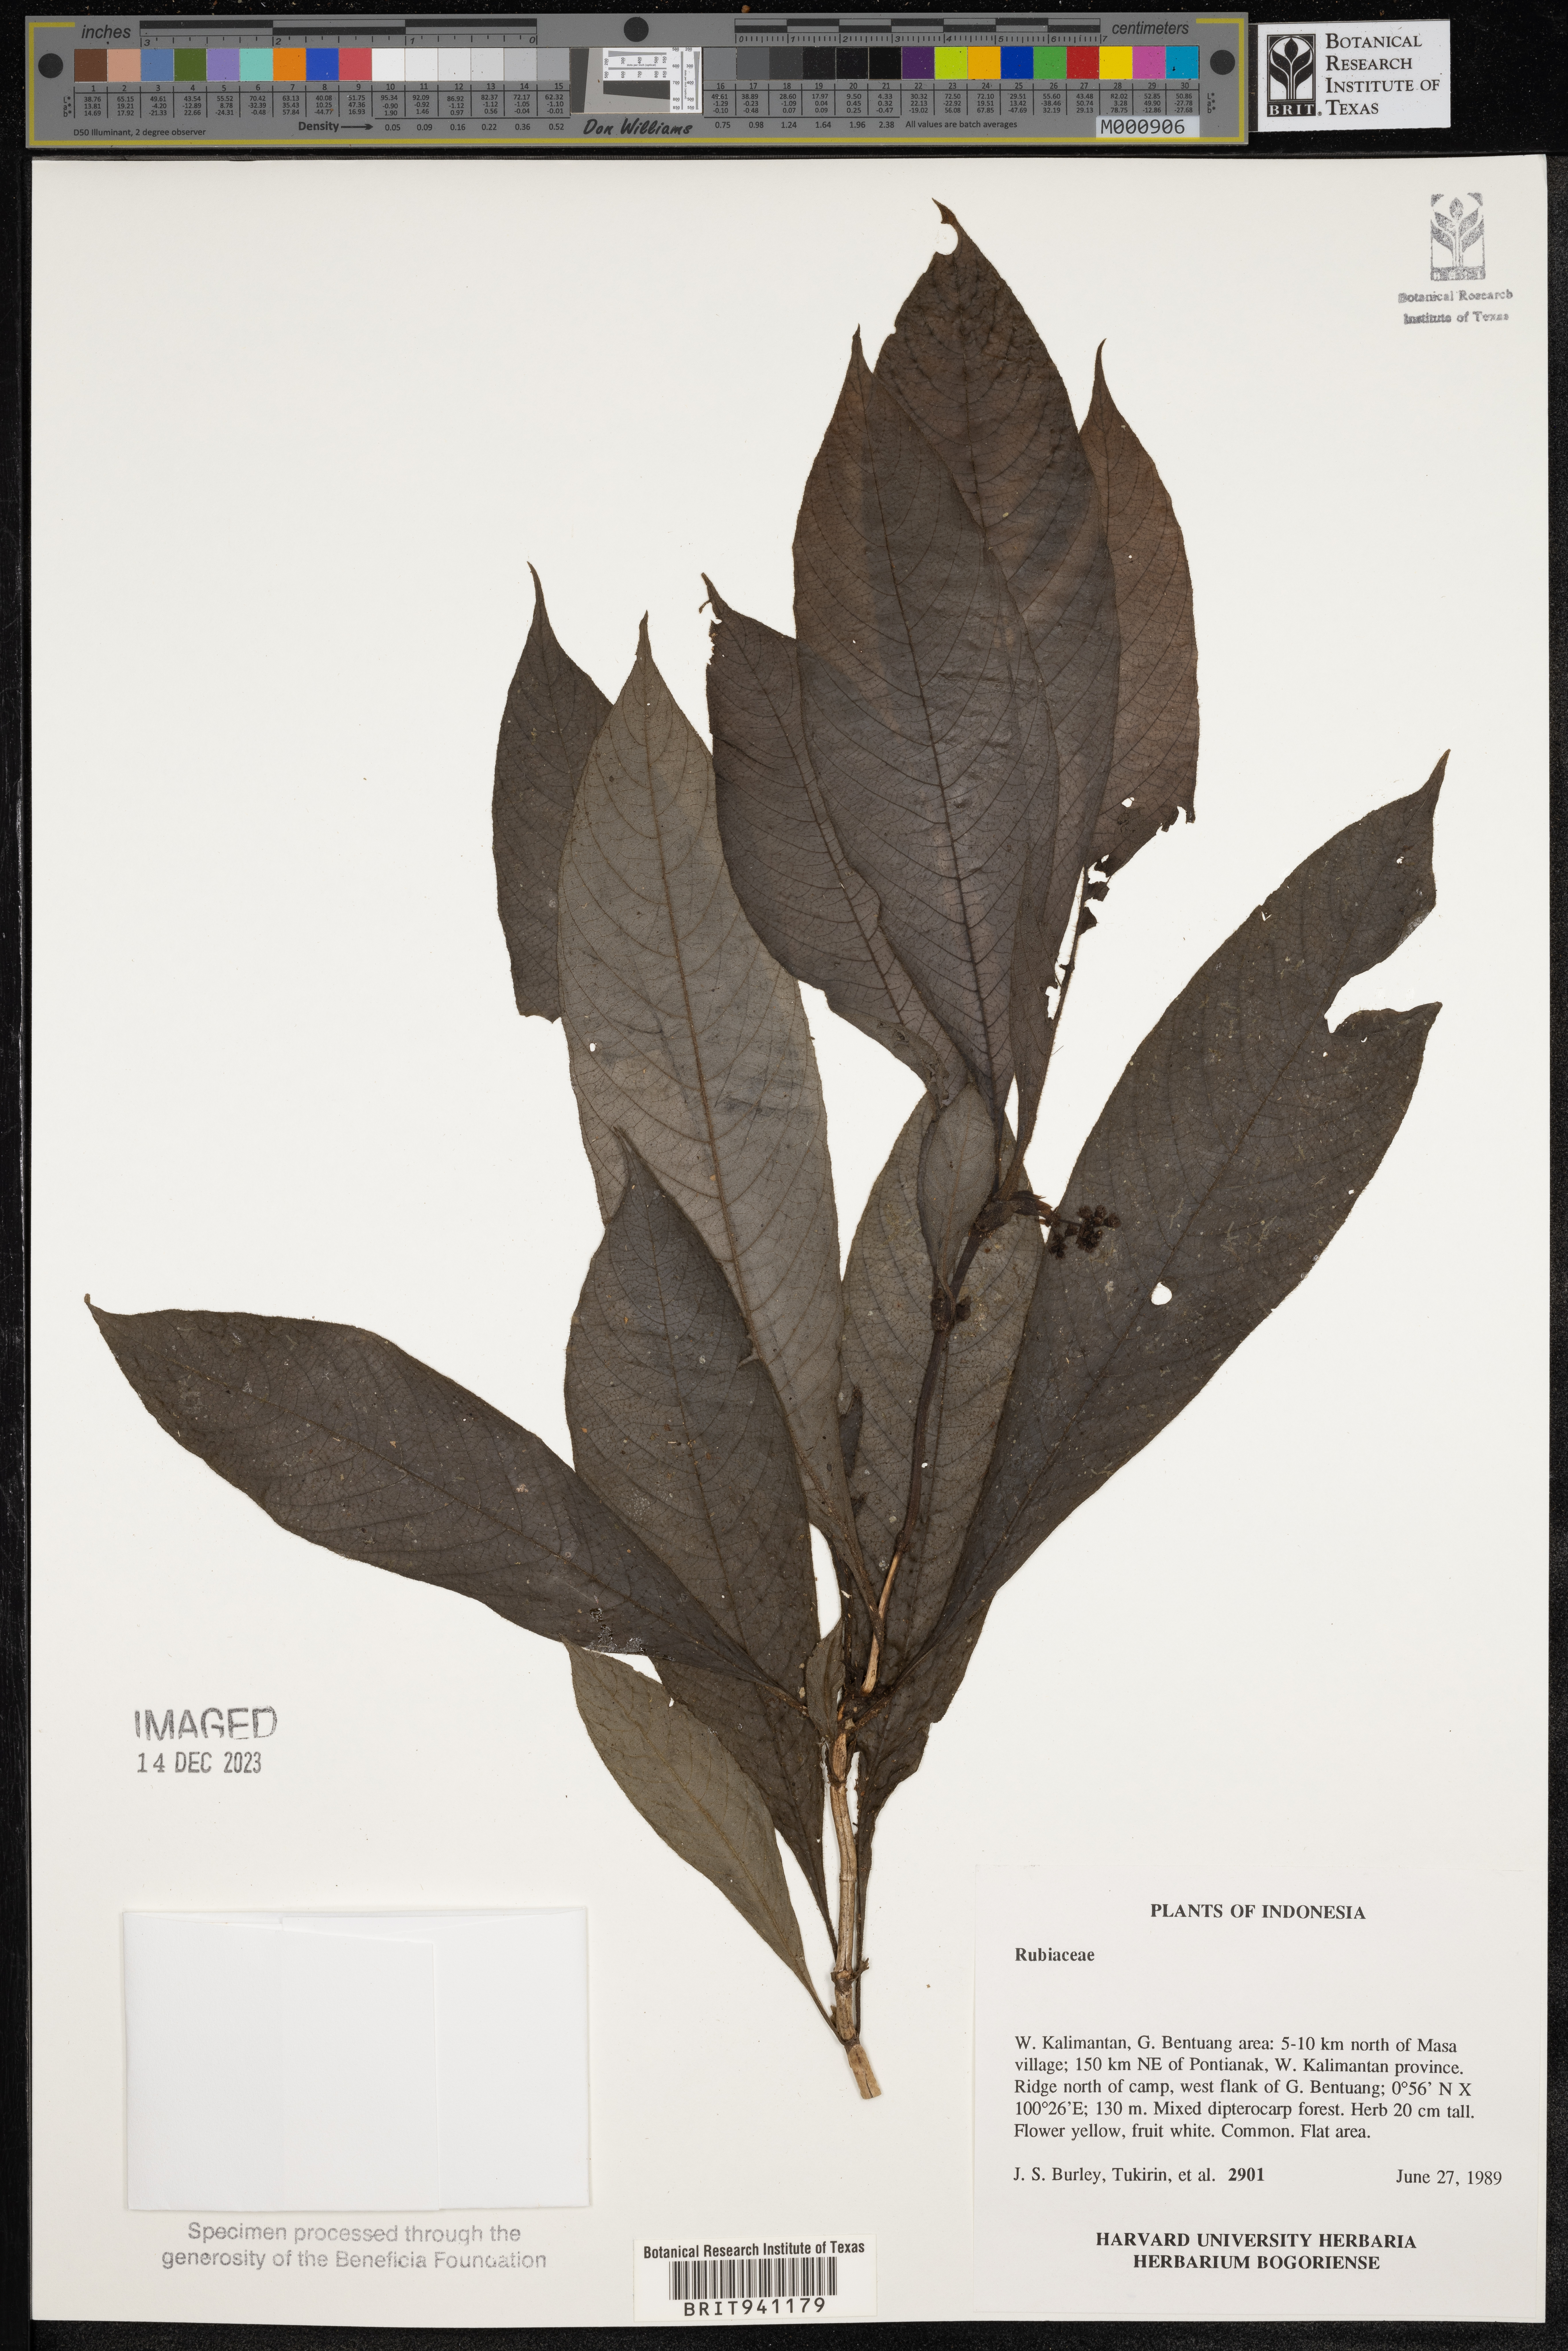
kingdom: Plantae
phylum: Tracheophyta
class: Magnoliopsida
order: Gentianales
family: Rubiaceae
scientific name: Rubiaceae
